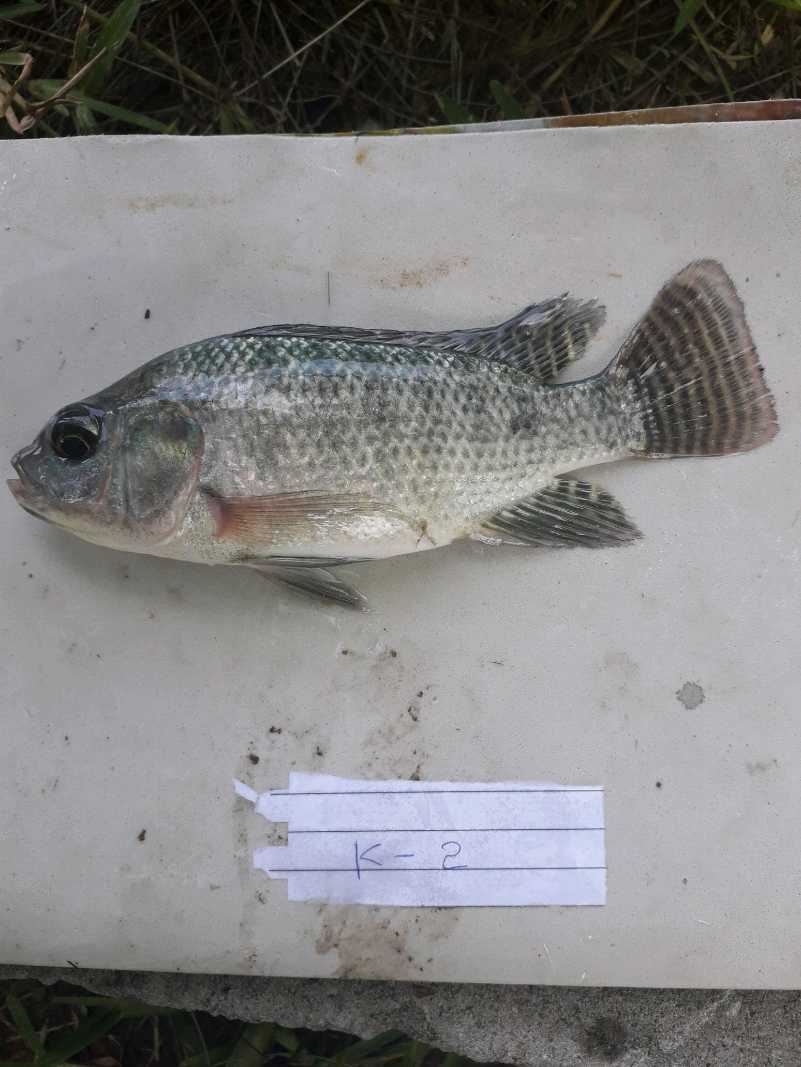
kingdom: Animalia
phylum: Chordata
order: Perciformes
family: Cichlidae
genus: Oreochromis
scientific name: Oreochromis niloticus
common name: Nile tilapia
